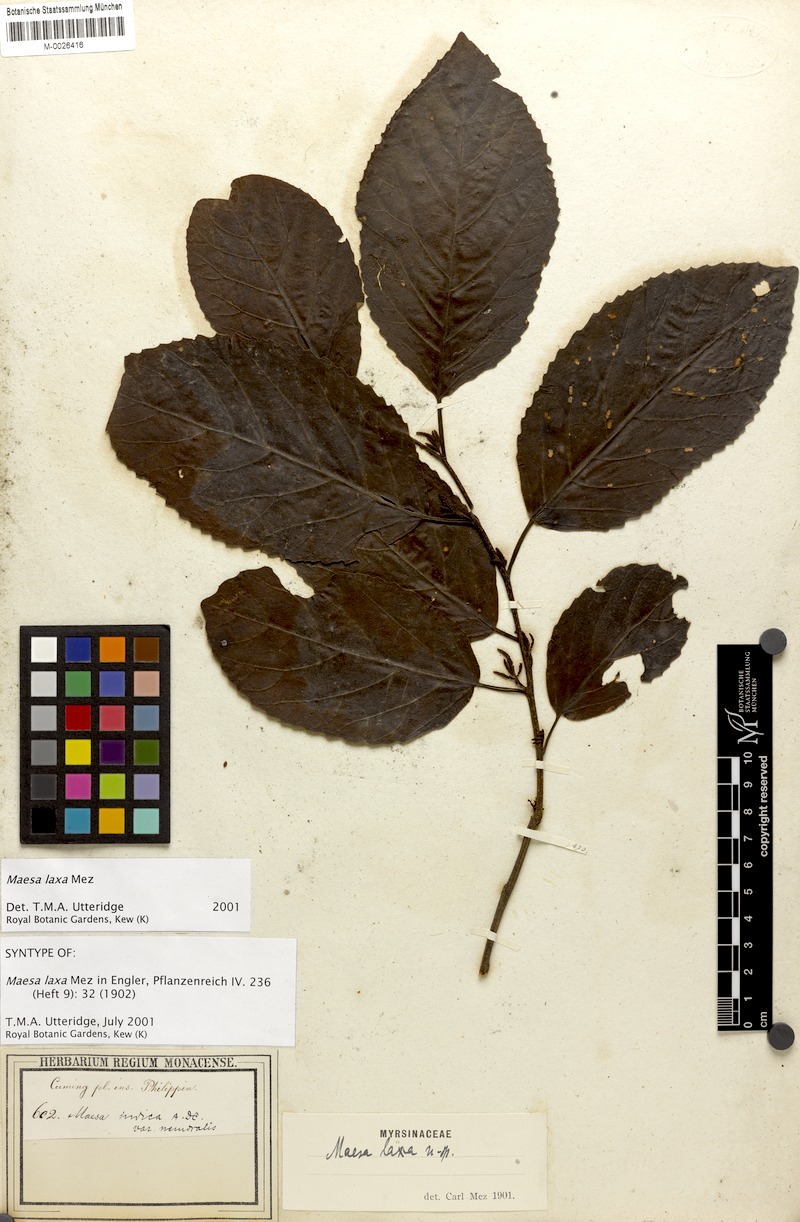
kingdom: Plantae
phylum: Tracheophyta
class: Magnoliopsida
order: Ericales
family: Primulaceae
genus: Maesa
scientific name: Maesa indica
